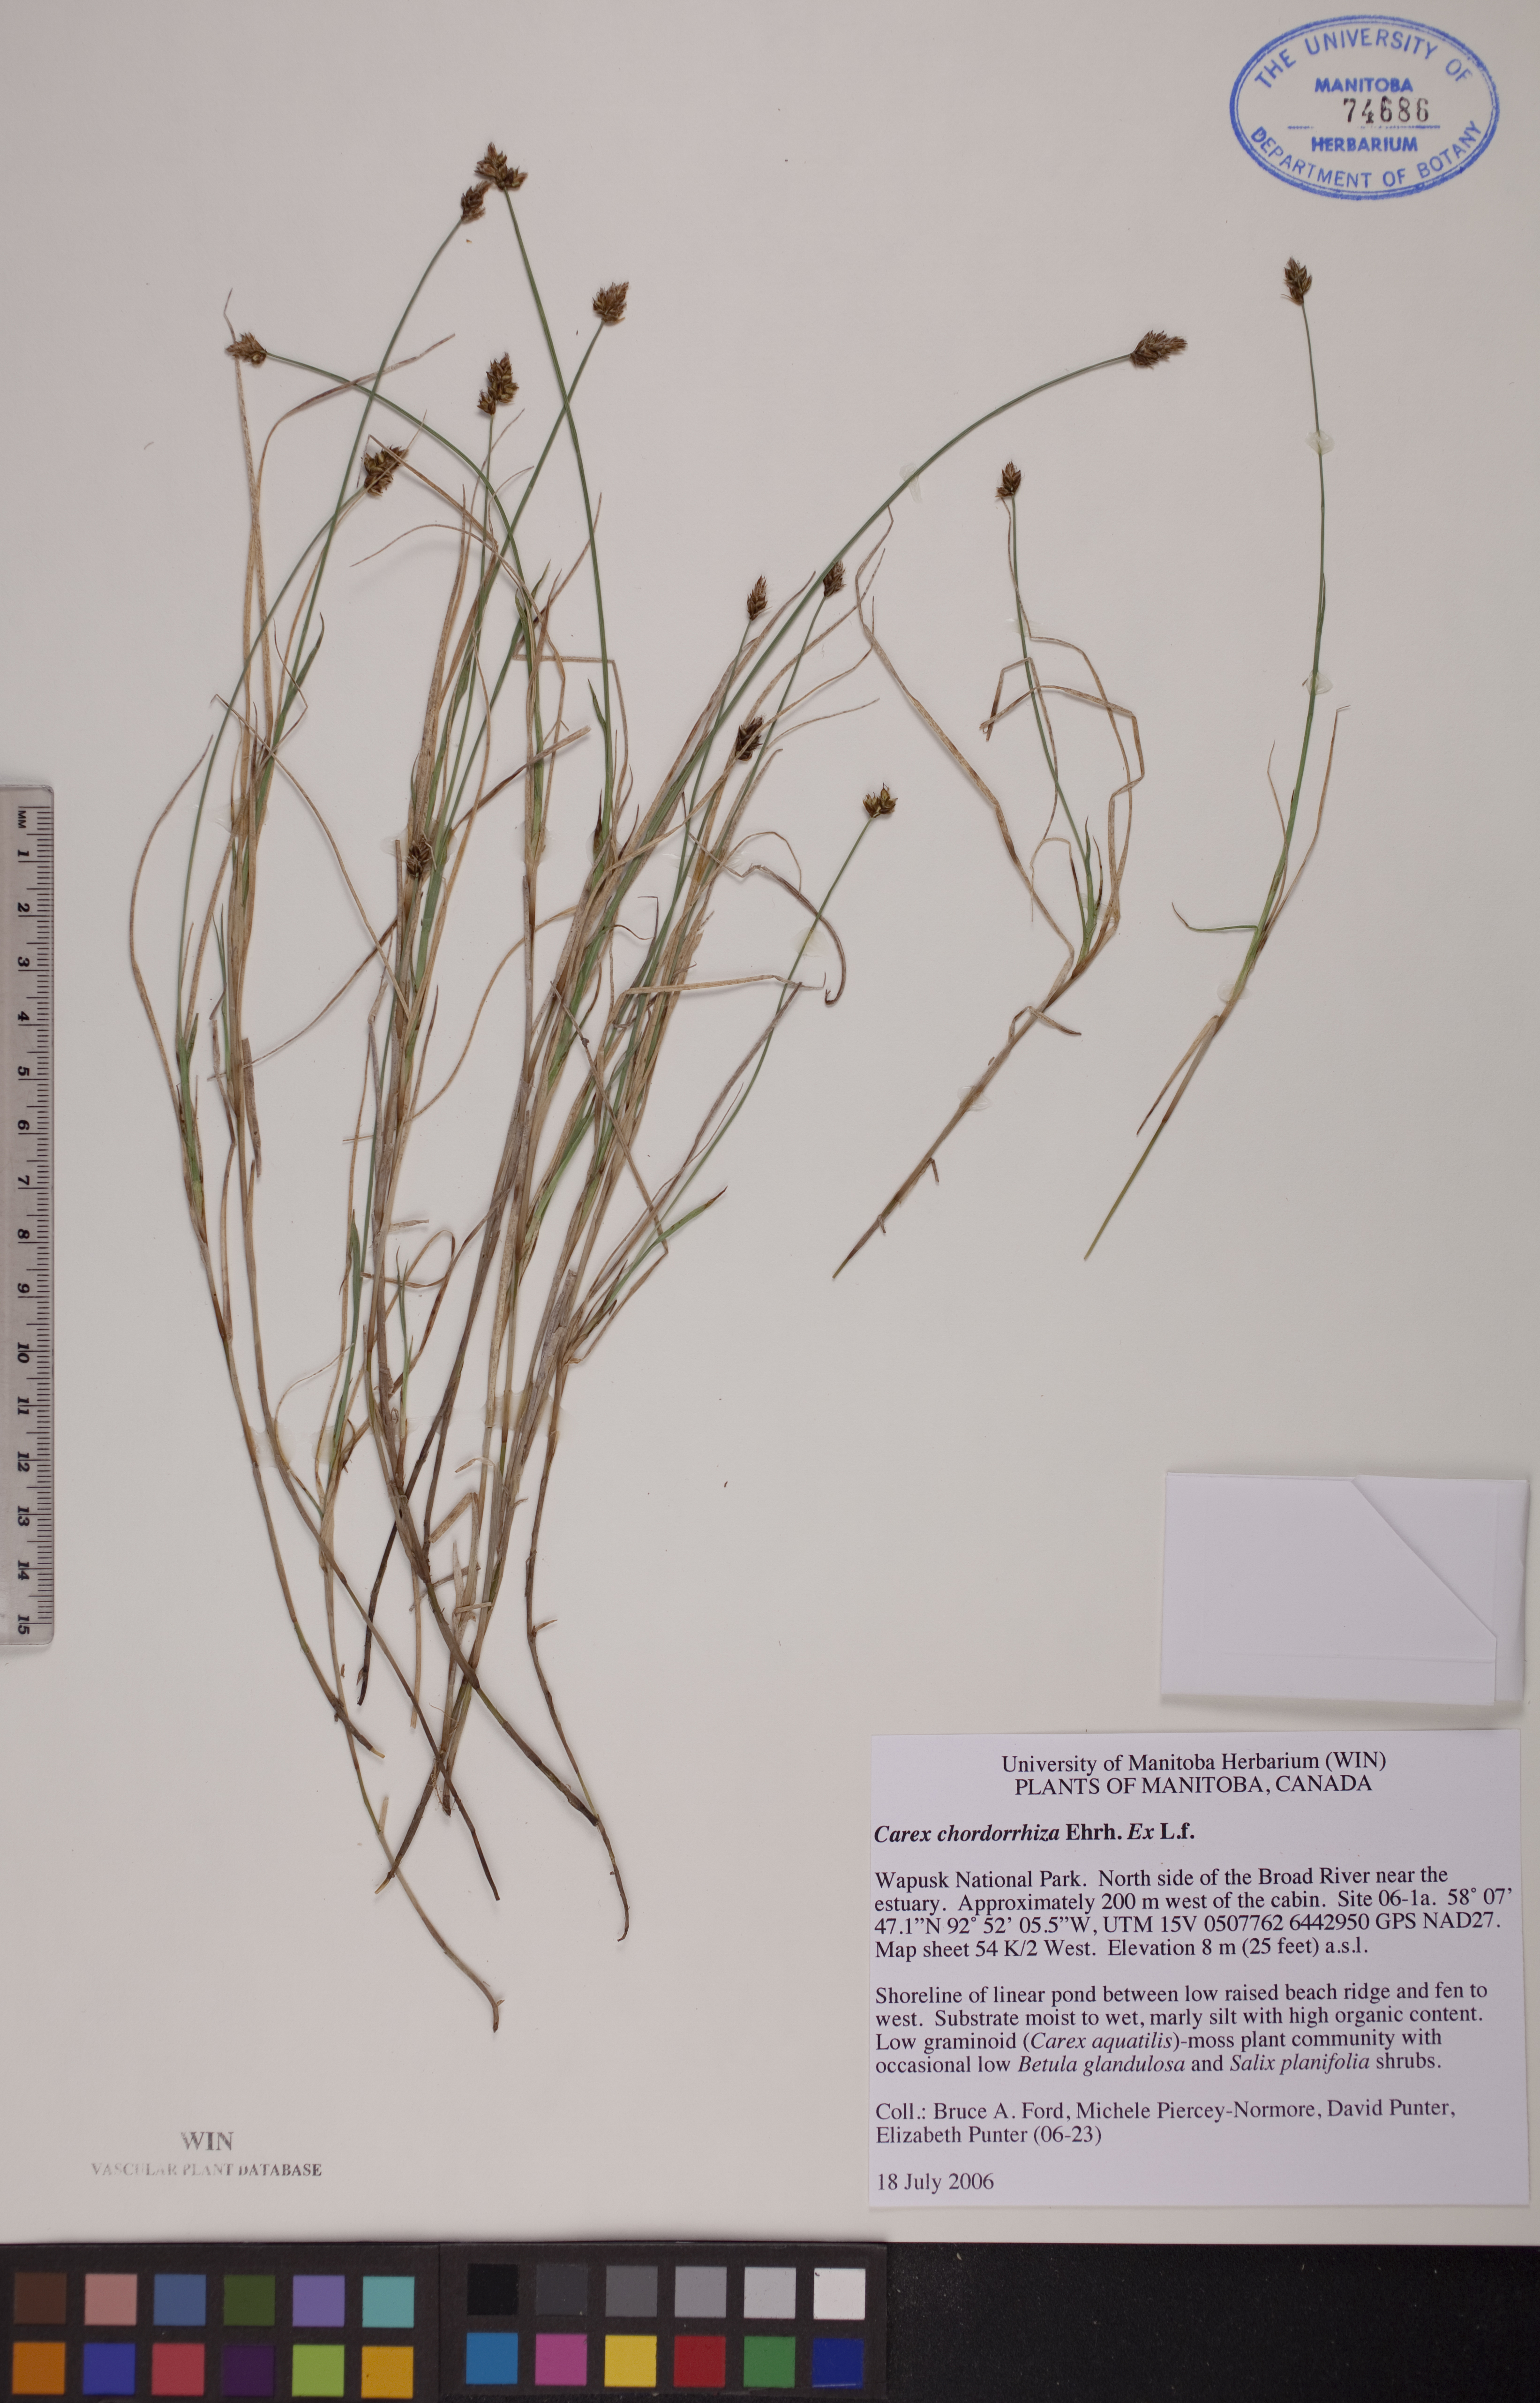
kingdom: Plantae
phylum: Tracheophyta
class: Liliopsida
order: Poales
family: Cyperaceae
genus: Carex
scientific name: Carex chordorrhiza
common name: String sedge
